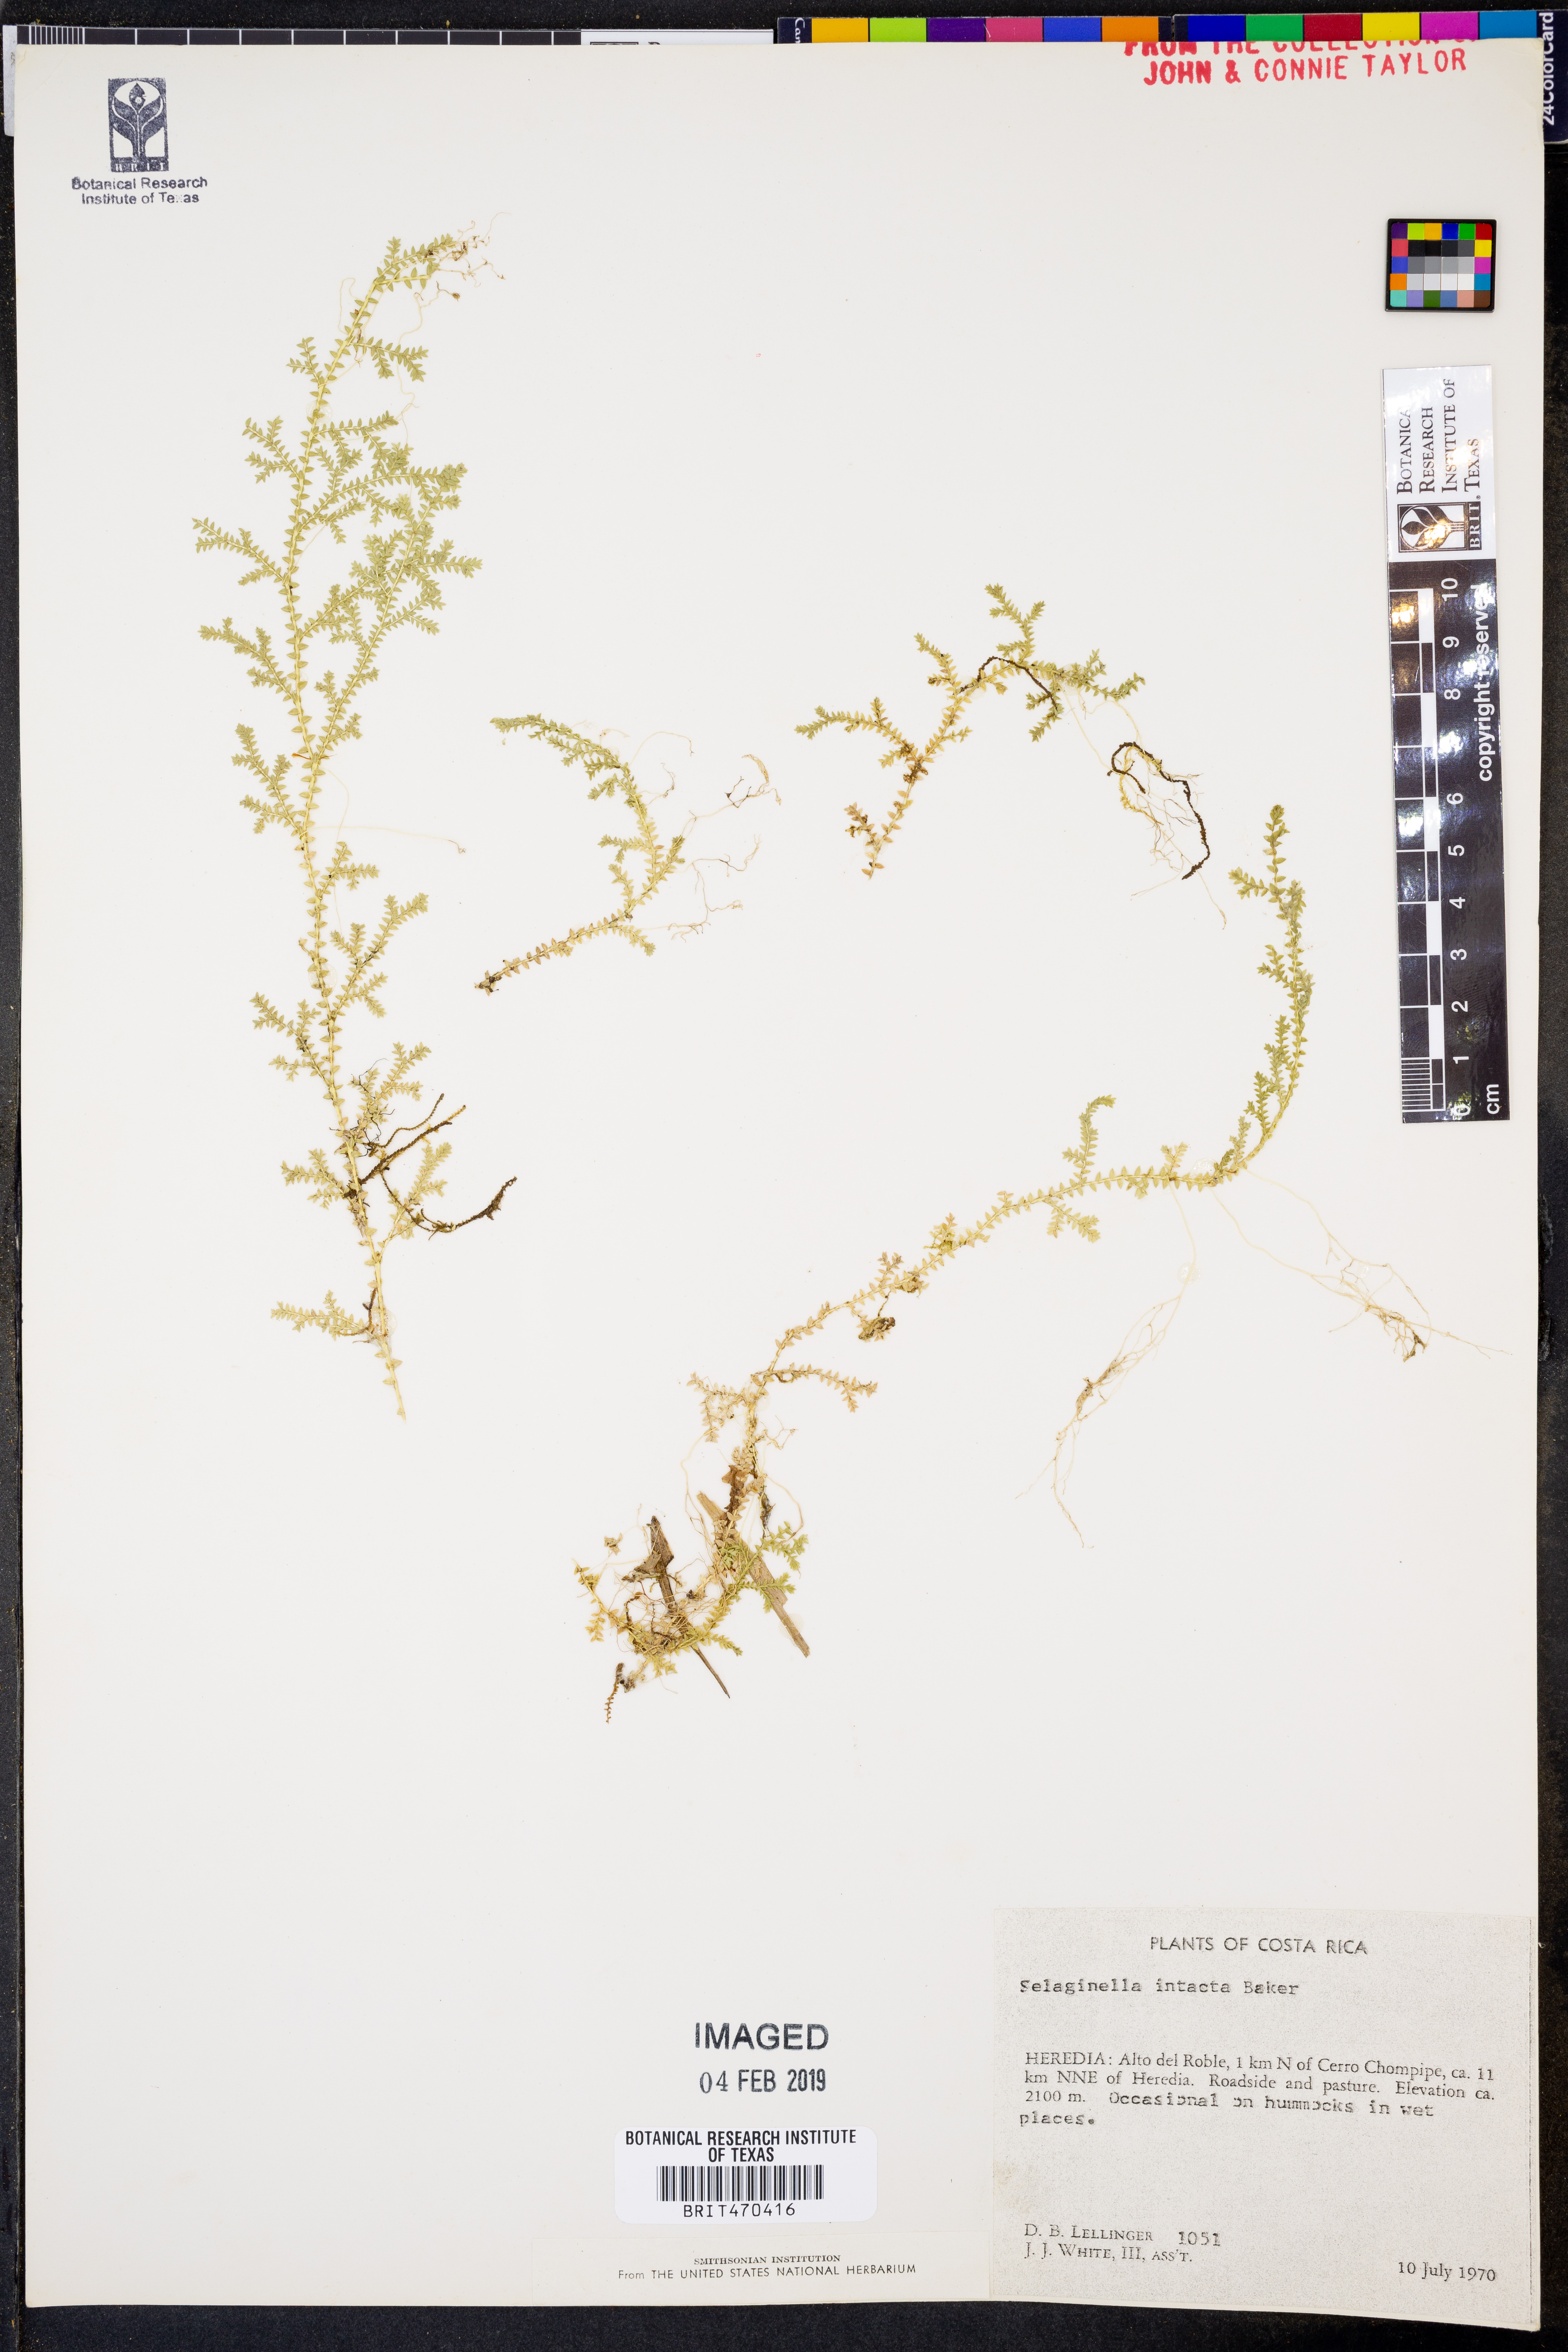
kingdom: Plantae
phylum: Tracheophyta
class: Lycopodiopsida
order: Selaginellales
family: Selaginellaceae
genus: Selaginella
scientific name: Selaginella lingulata
